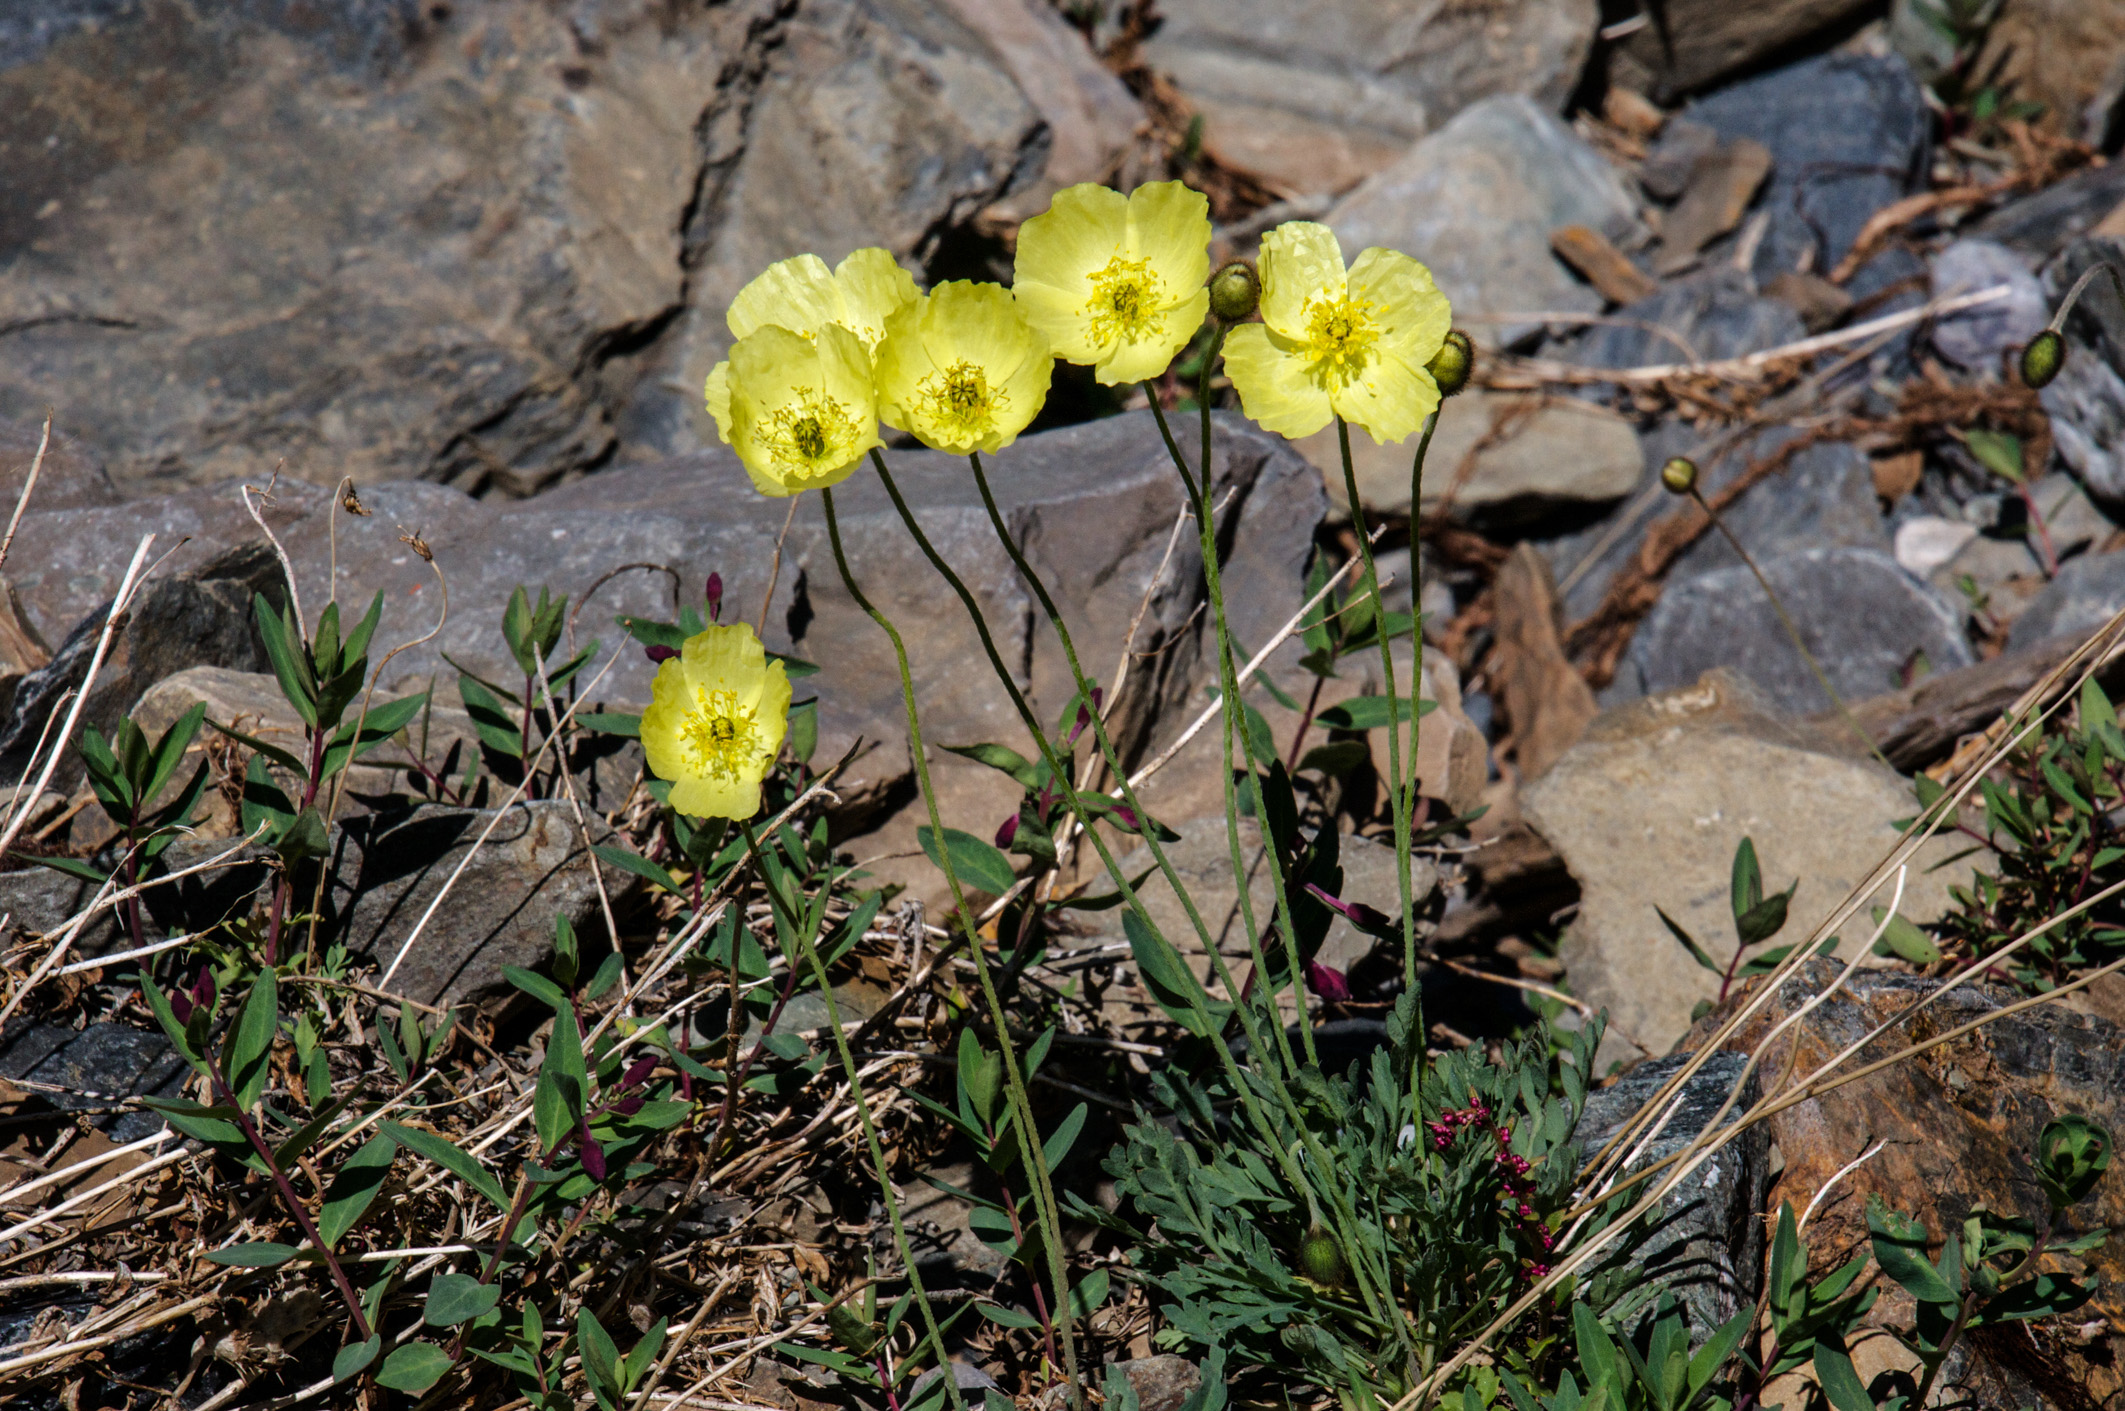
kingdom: Plantae
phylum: Tracheophyta
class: Magnoliopsida
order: Ranunculales
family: Papaveraceae
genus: Papaver
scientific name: Papaver canescens
